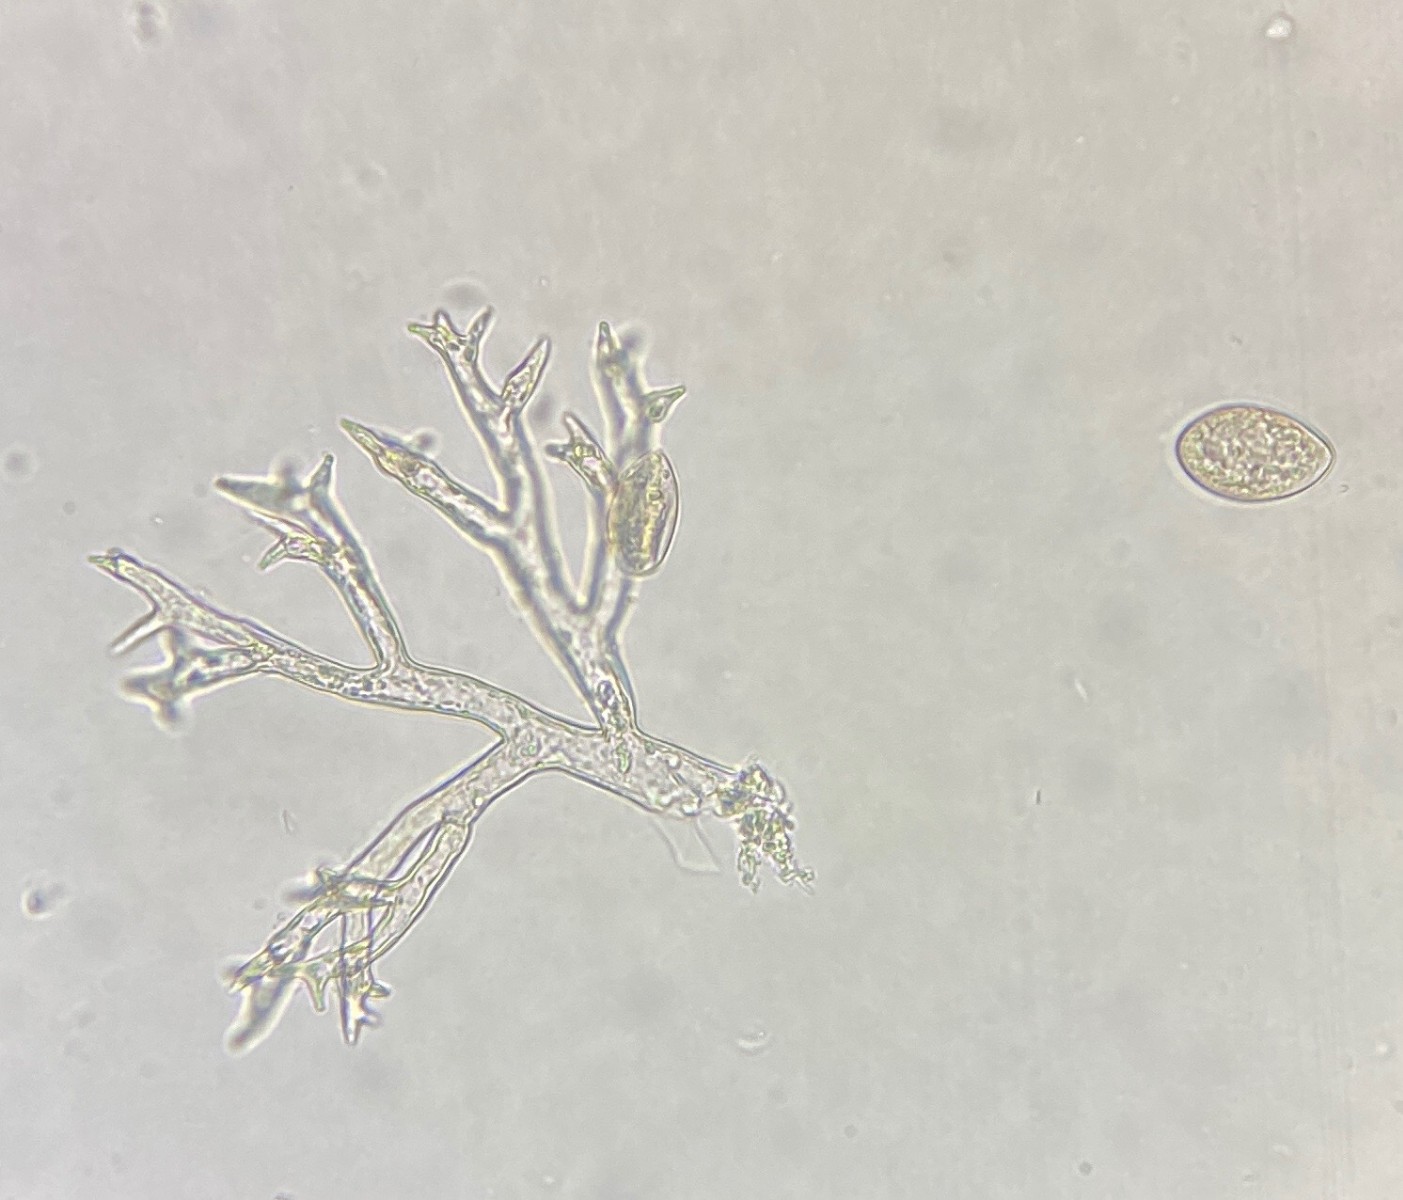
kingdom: Chromista
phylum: Oomycota
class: Peronosporea
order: Peronosporales
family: Peronosporaceae
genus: Peronospora
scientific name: Peronospora radii
